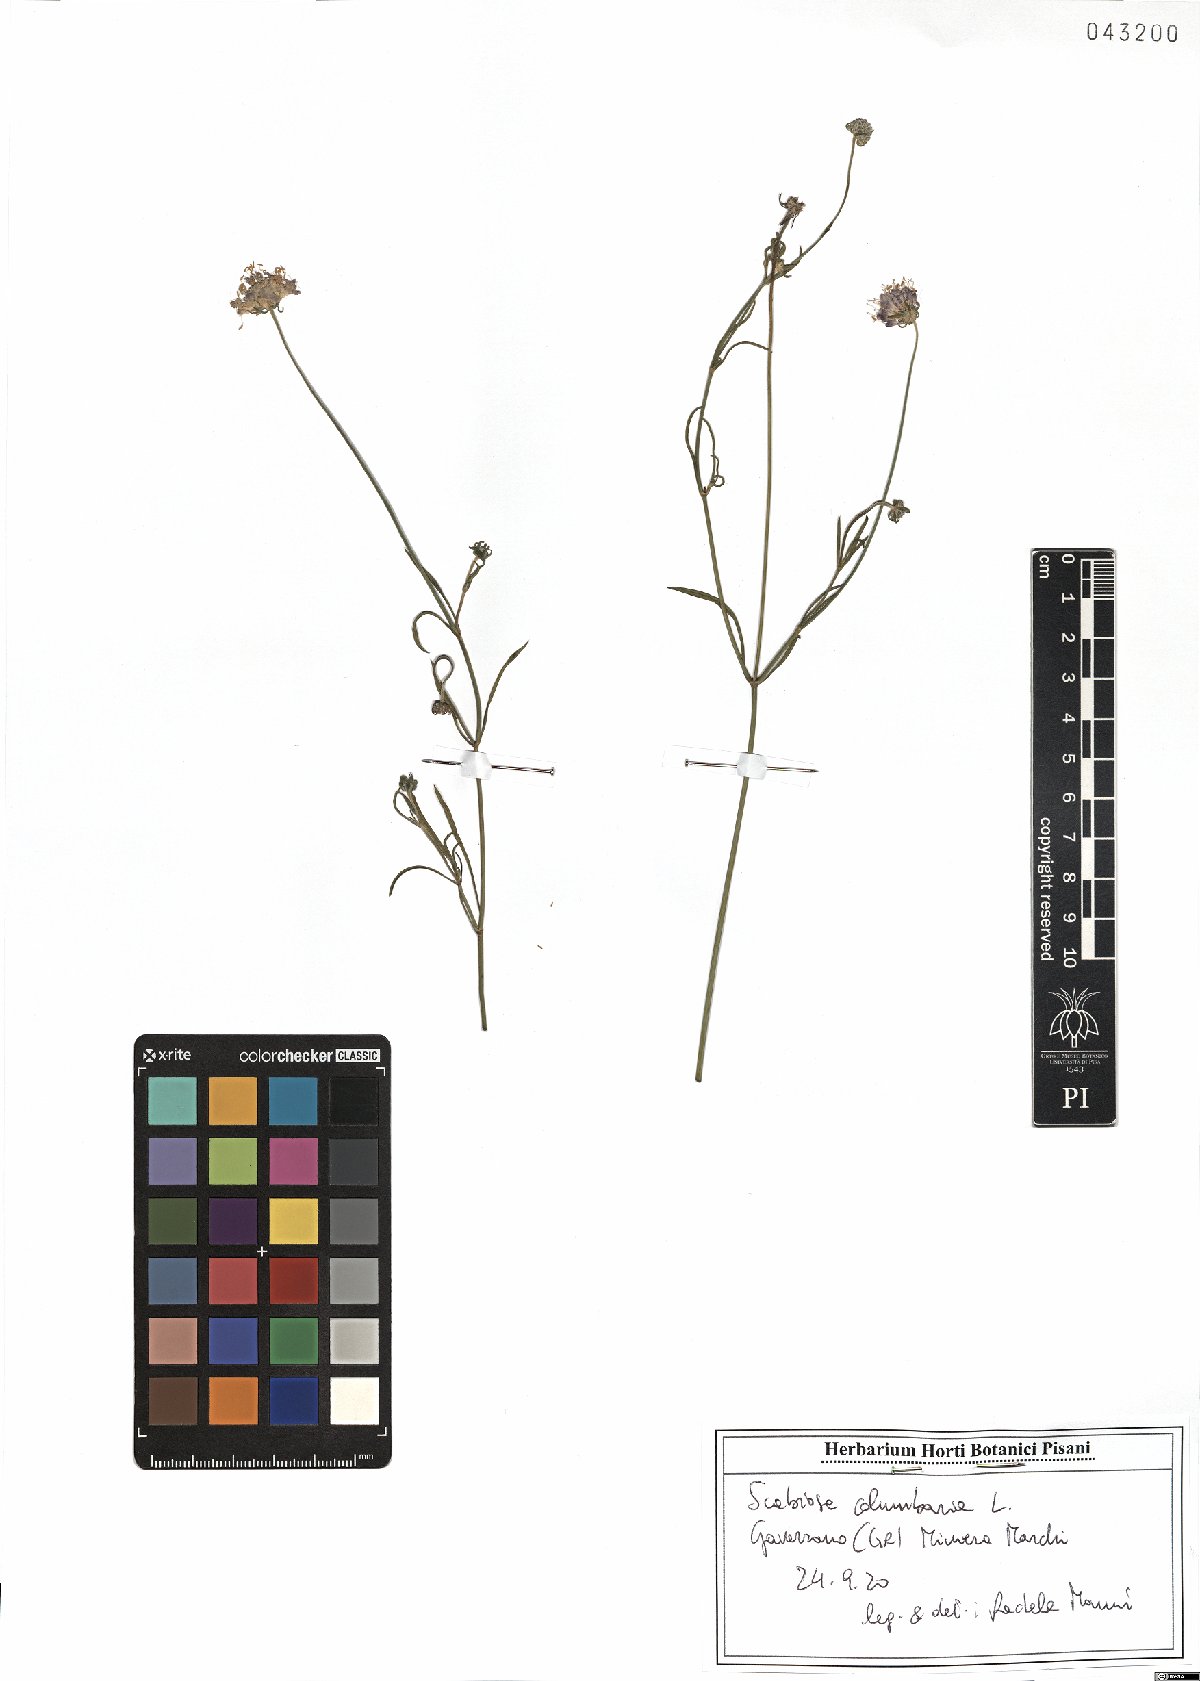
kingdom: Plantae
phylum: Tracheophyta
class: Magnoliopsida
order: Dipsacales
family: Caprifoliaceae
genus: Scabiosa
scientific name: Scabiosa columbaria
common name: Small scabious
